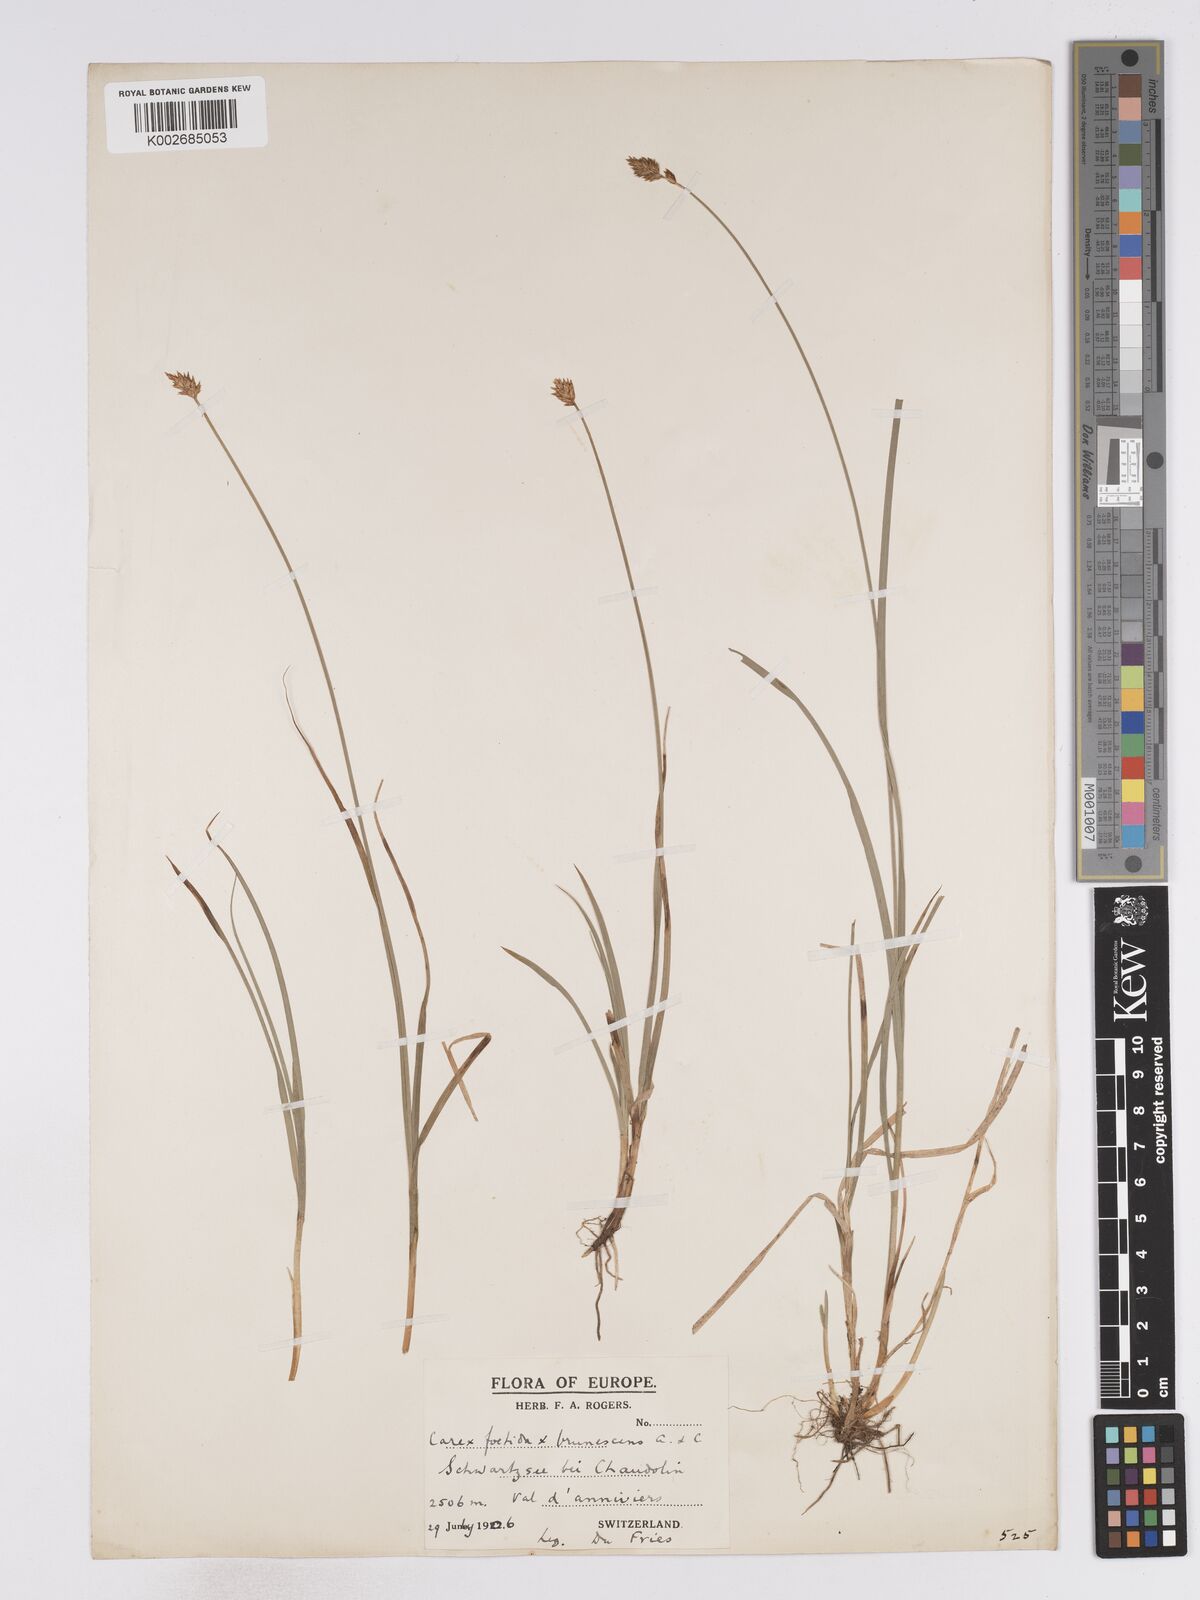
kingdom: Plantae
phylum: Tracheophyta
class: Liliopsida
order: Poales
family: Cyperaceae
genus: Carex
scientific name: Carex microstyla
